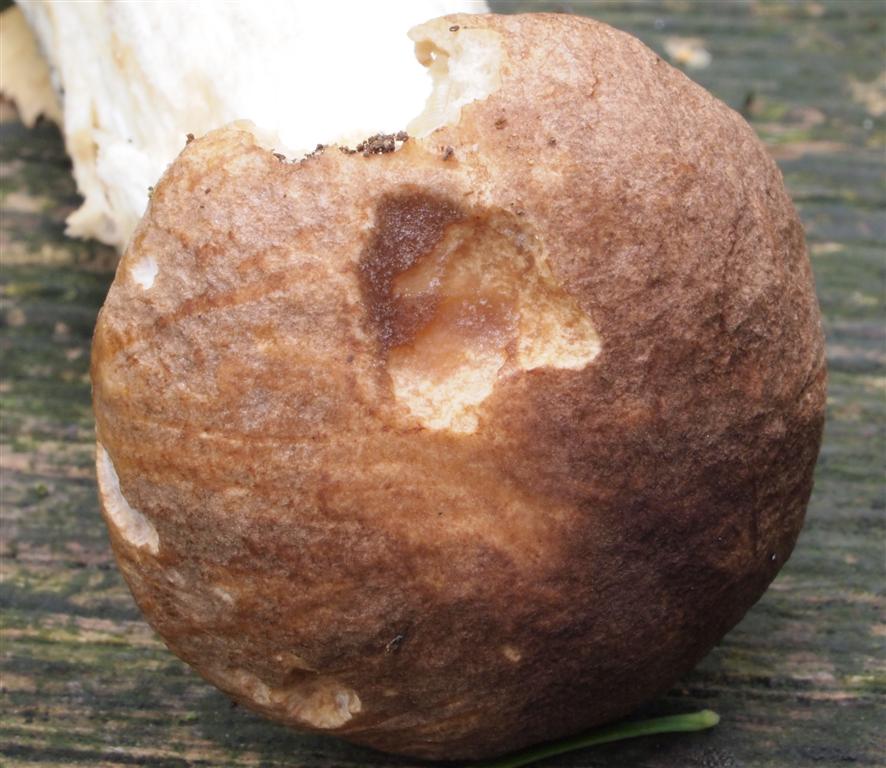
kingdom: Fungi
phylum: Basidiomycota
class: Agaricomycetes
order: Boletales
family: Boletaceae
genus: Leccinum
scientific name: Leccinum scabrum
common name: brun skælrørhat
